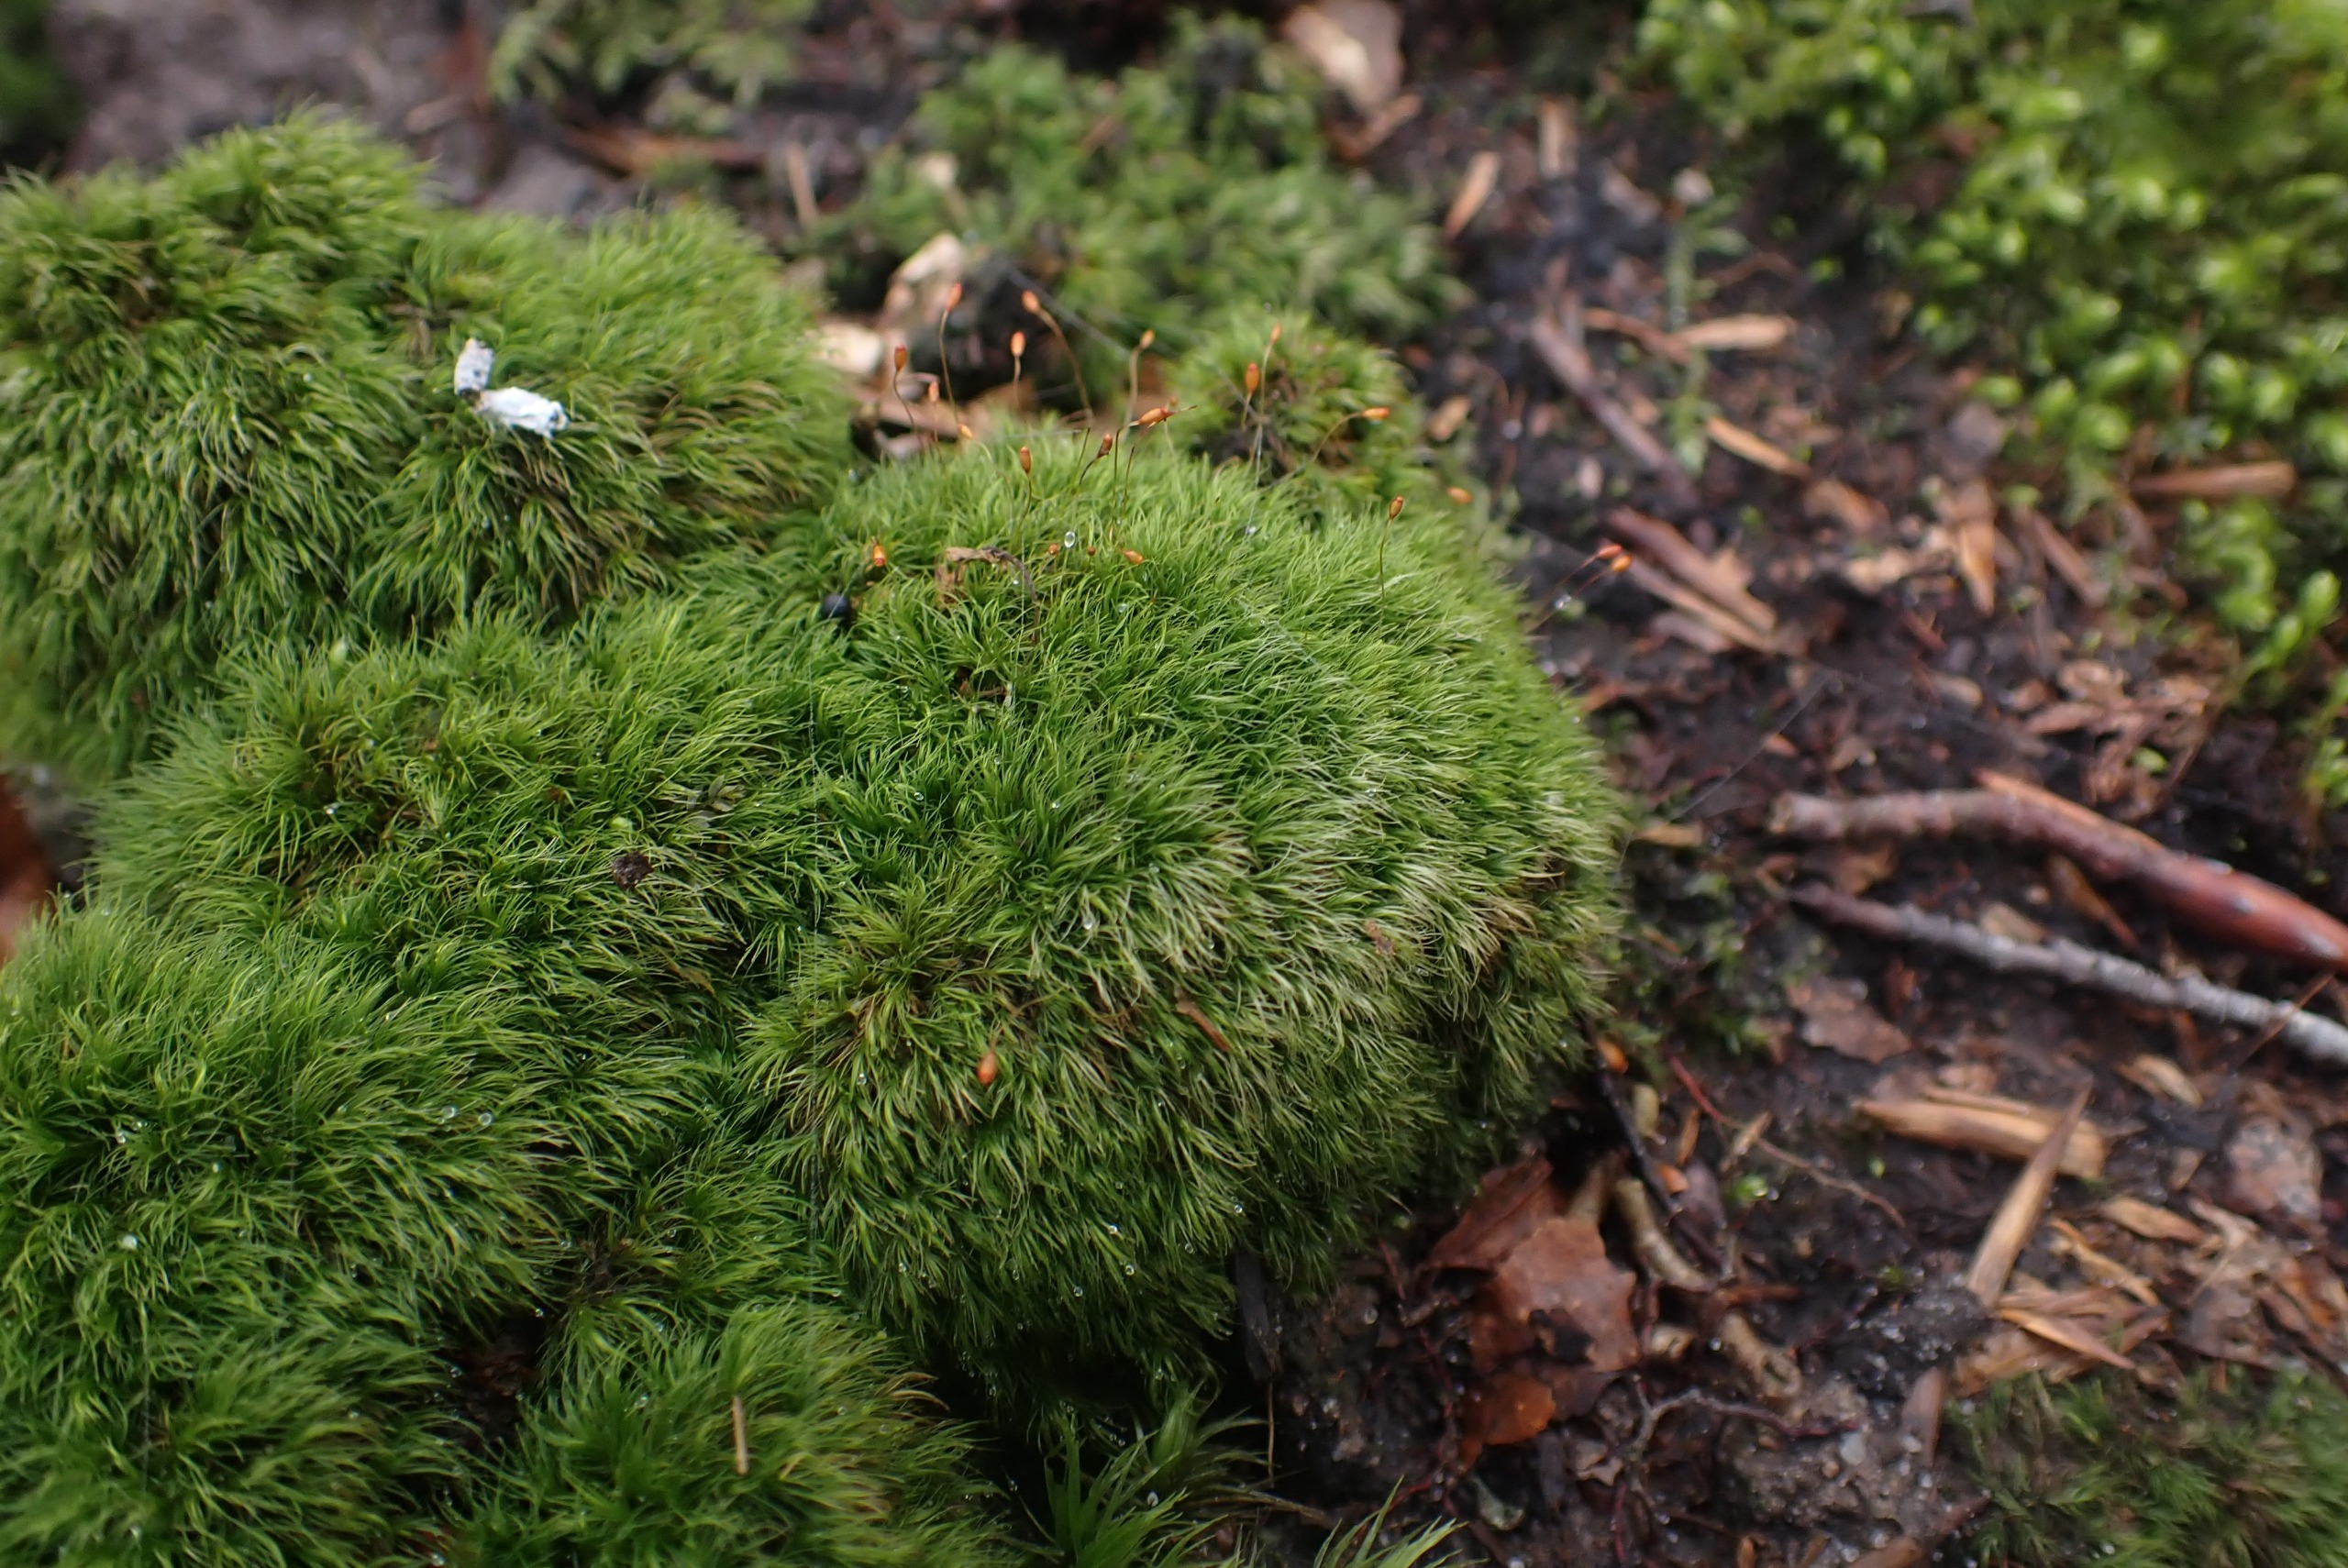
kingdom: Plantae
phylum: Bryophyta
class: Bryopsida
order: Dicranales
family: Dicranellaceae
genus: Dicranella
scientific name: Dicranella heteromalla
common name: Almindelig fløjlsmos
